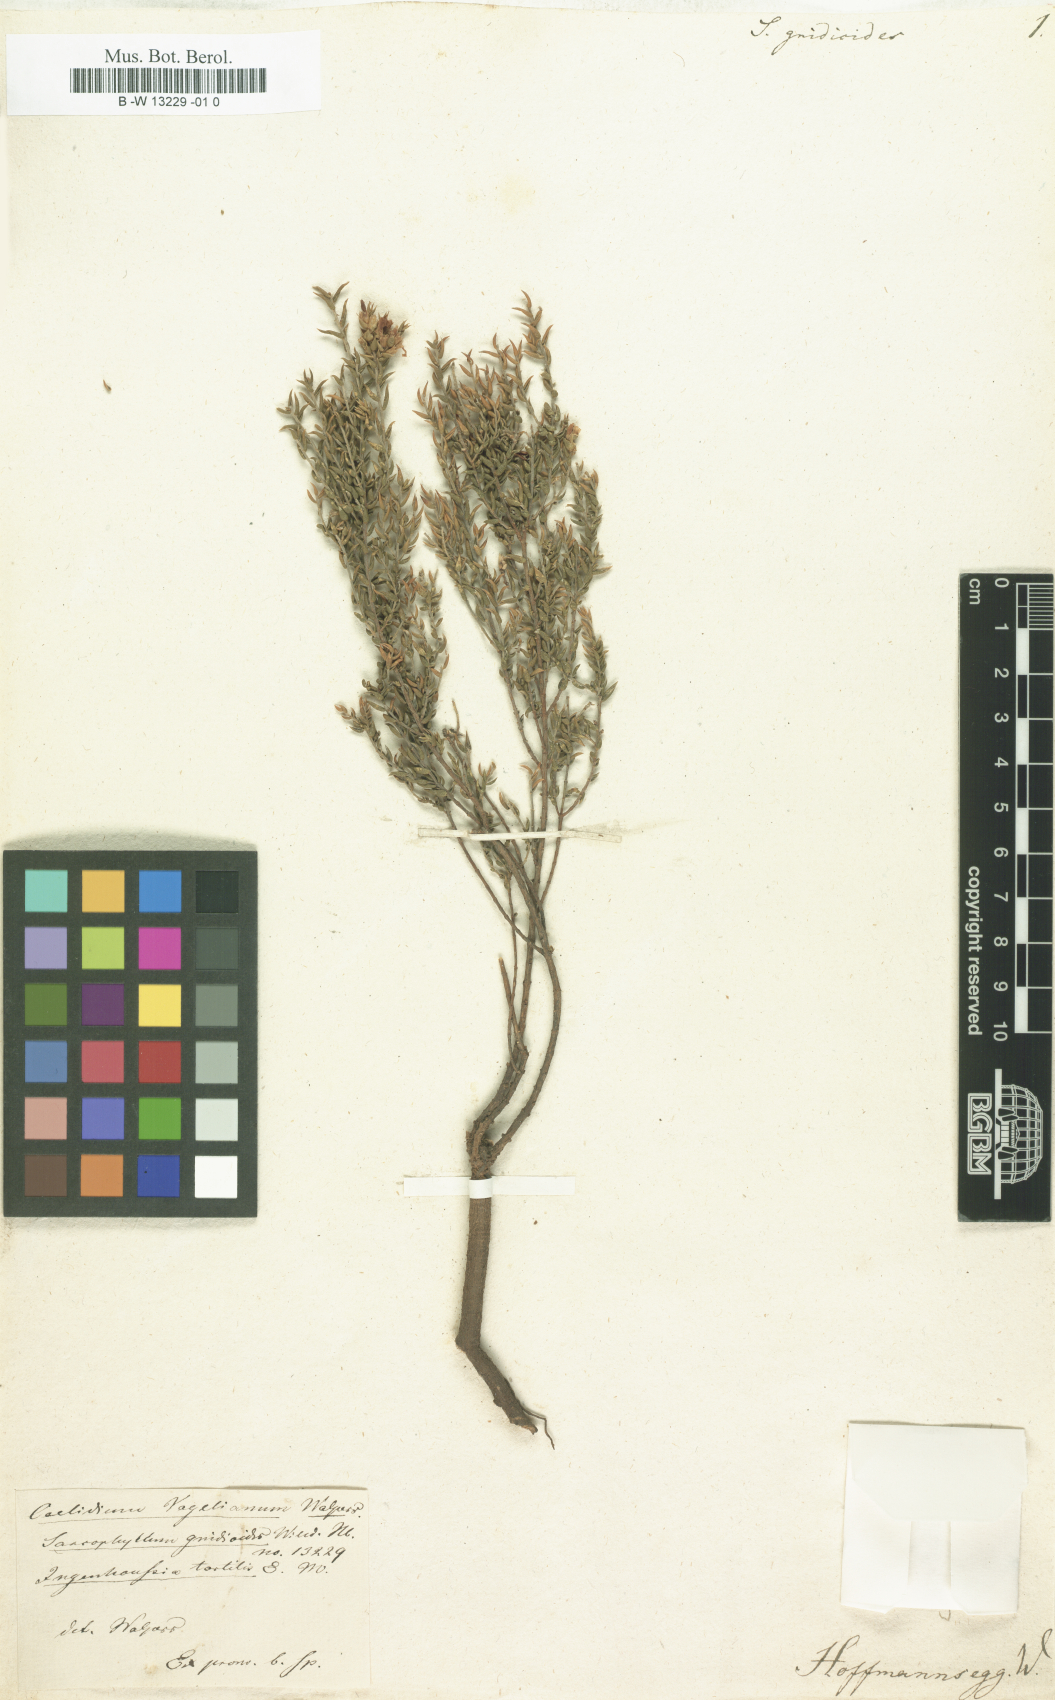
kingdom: Plantae
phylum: Tracheophyta
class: Magnoliopsida
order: Fabales
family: Fabaceae
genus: Amphithalea
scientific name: Amphithalea tortilis
